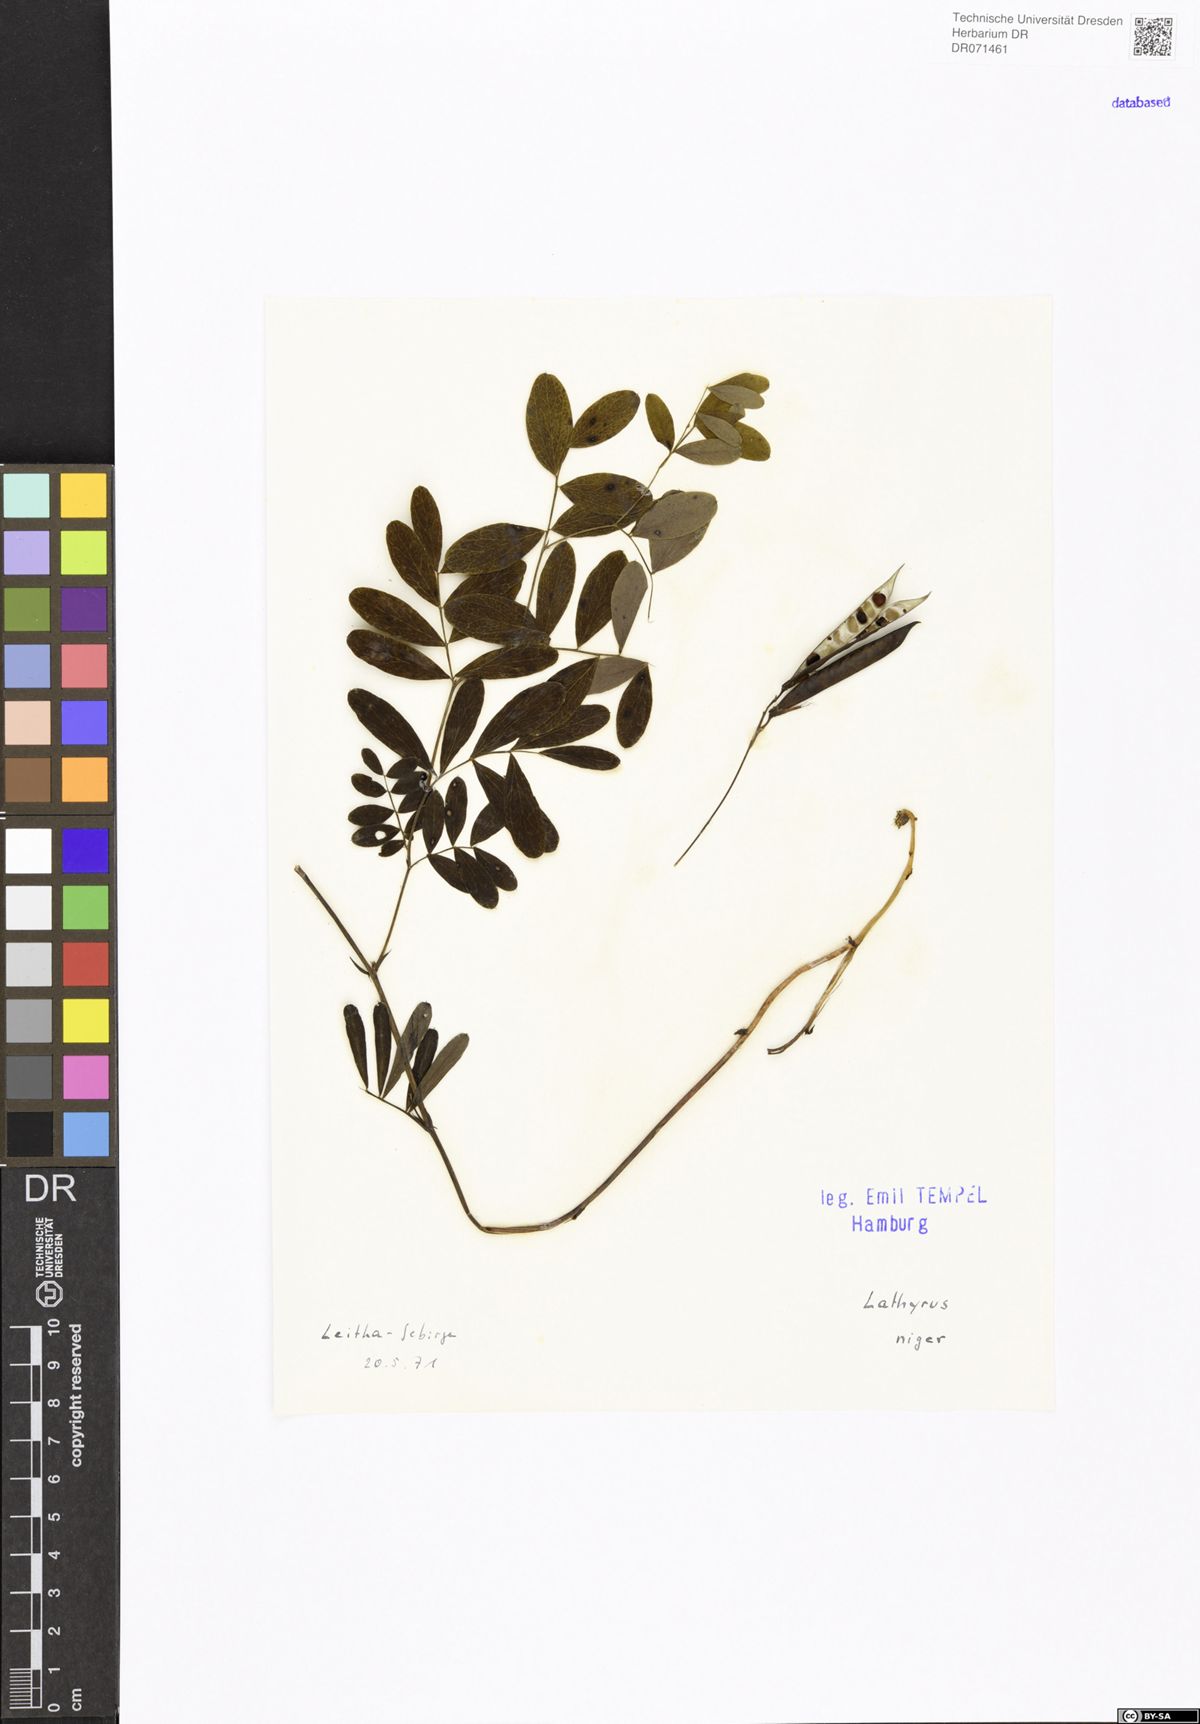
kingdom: Plantae
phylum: Tracheophyta
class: Magnoliopsida
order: Fabales
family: Fabaceae
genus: Lathyrus
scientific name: Lathyrus niger
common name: Black pea
